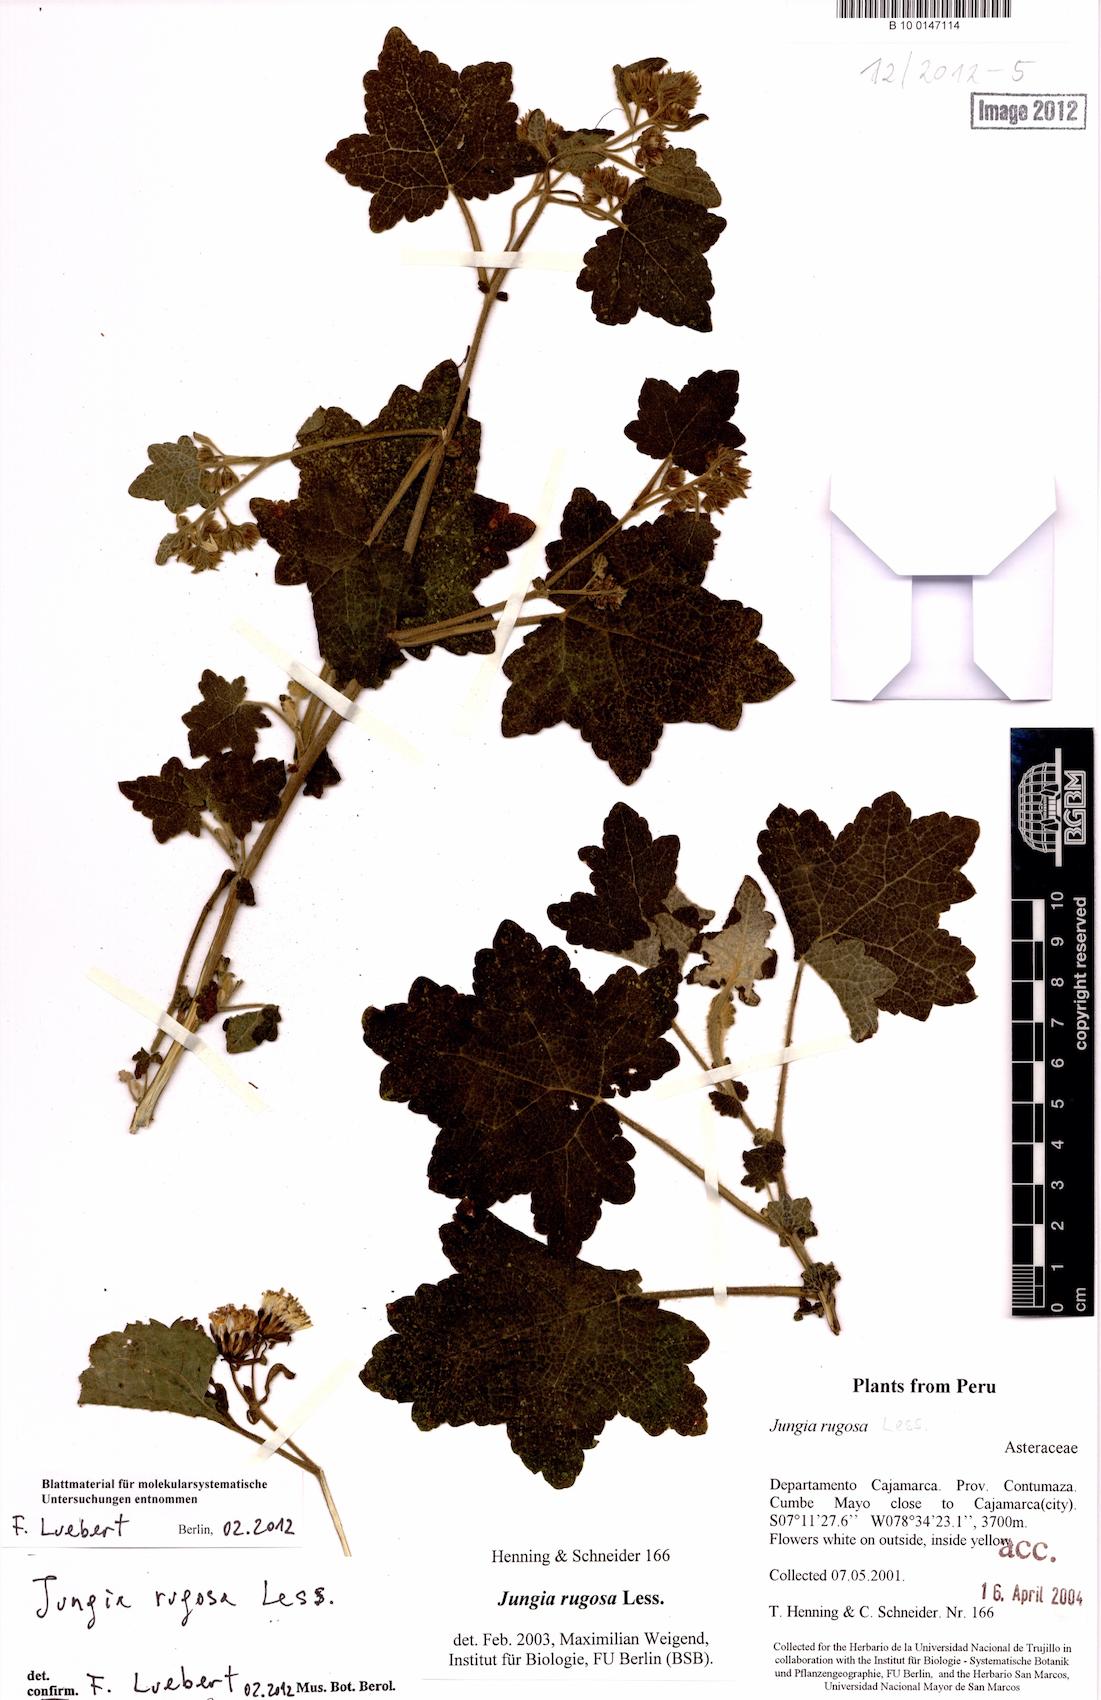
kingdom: Plantae
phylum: Tracheophyta
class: Magnoliopsida
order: Asterales
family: Asteraceae
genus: Jungia
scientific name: Jungia rugosa
